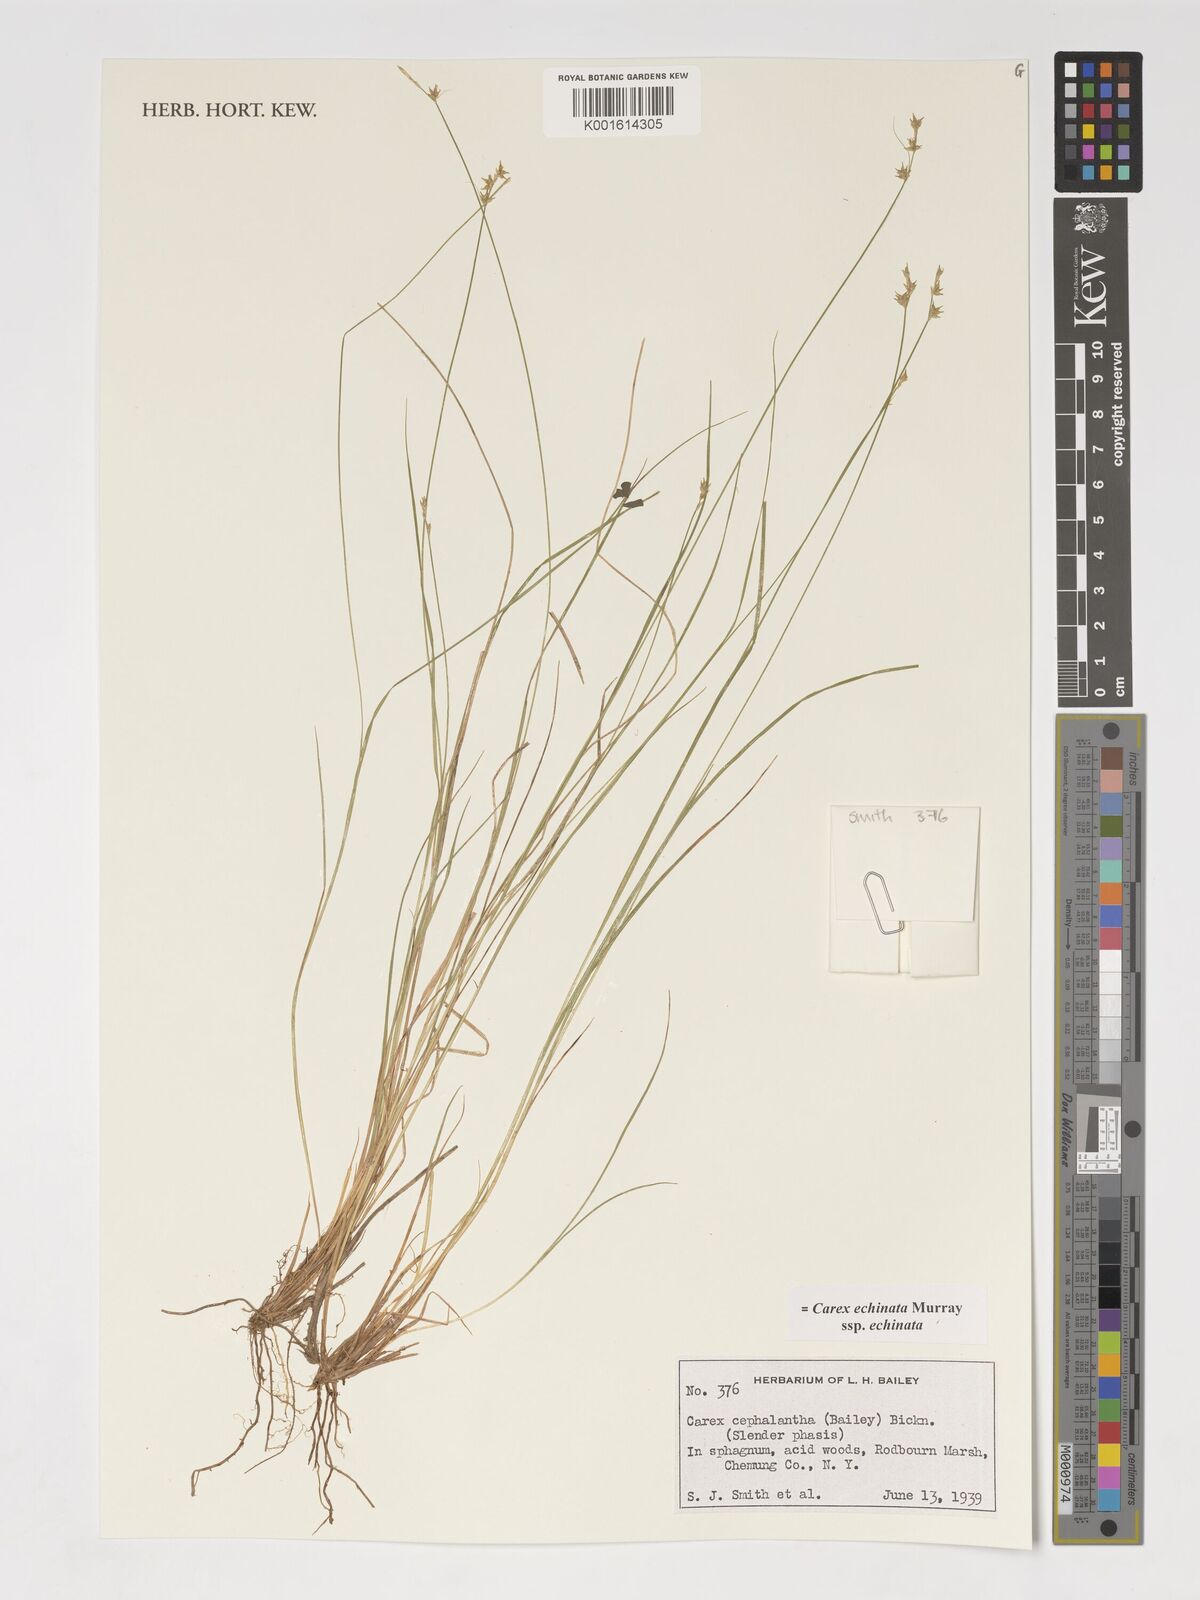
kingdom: Plantae
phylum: Tracheophyta
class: Liliopsida
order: Poales
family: Cyperaceae
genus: Carex
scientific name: Carex echinata
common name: Star sedge
